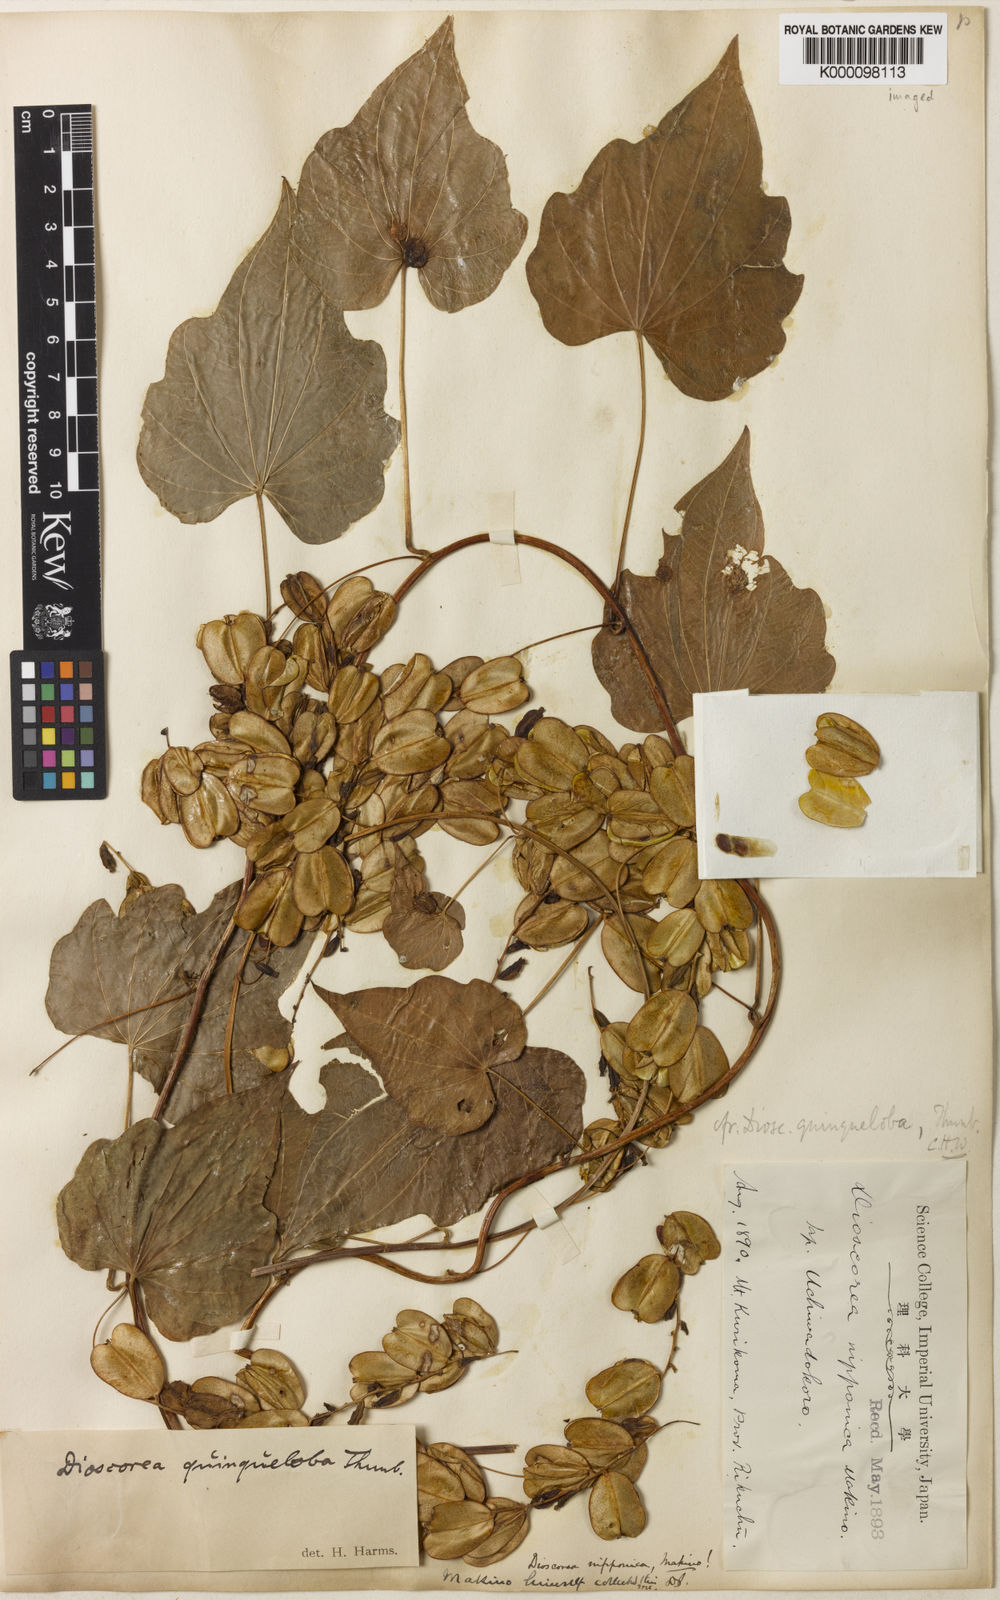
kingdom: Plantae
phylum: Tracheophyta
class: Liliopsida
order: Dioscoreales
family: Dioscoreaceae
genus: Dioscorea
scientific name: Dioscorea nipponica
